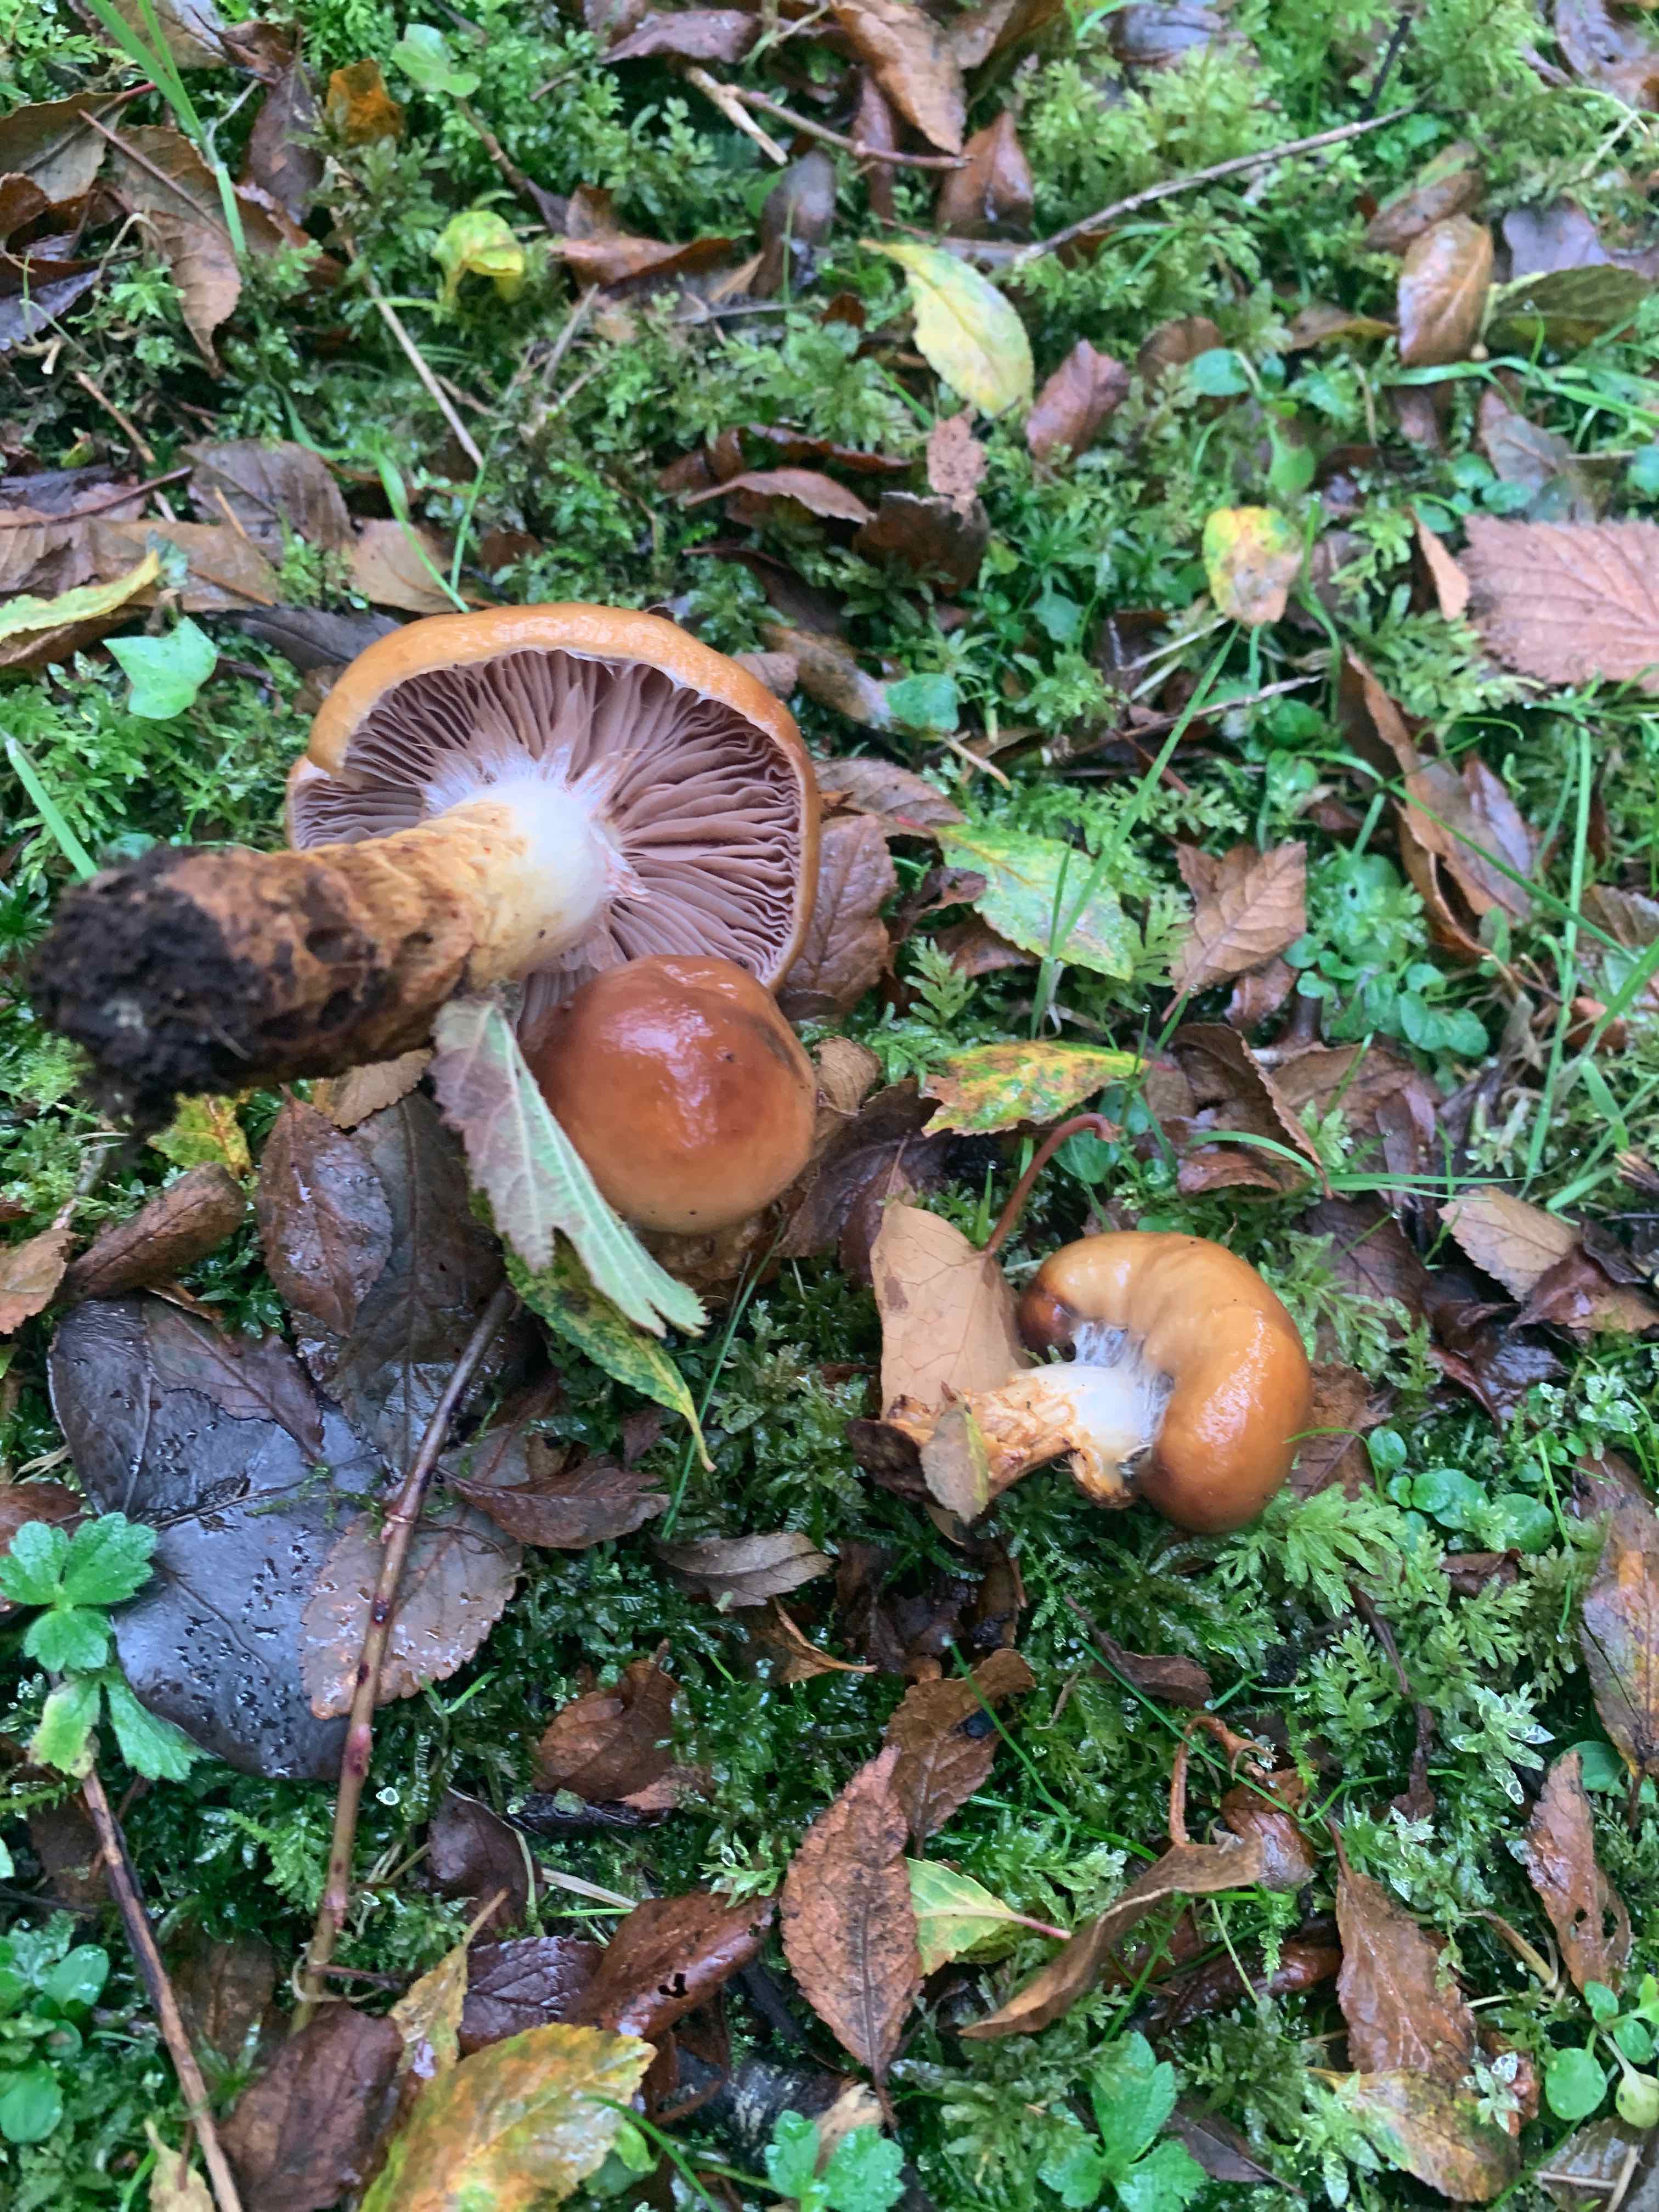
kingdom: Fungi
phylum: Basidiomycota
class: Agaricomycetes
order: Agaricales
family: Cortinariaceae
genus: Cortinarius
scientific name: Cortinarius trivialis
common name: Girdled webcap
